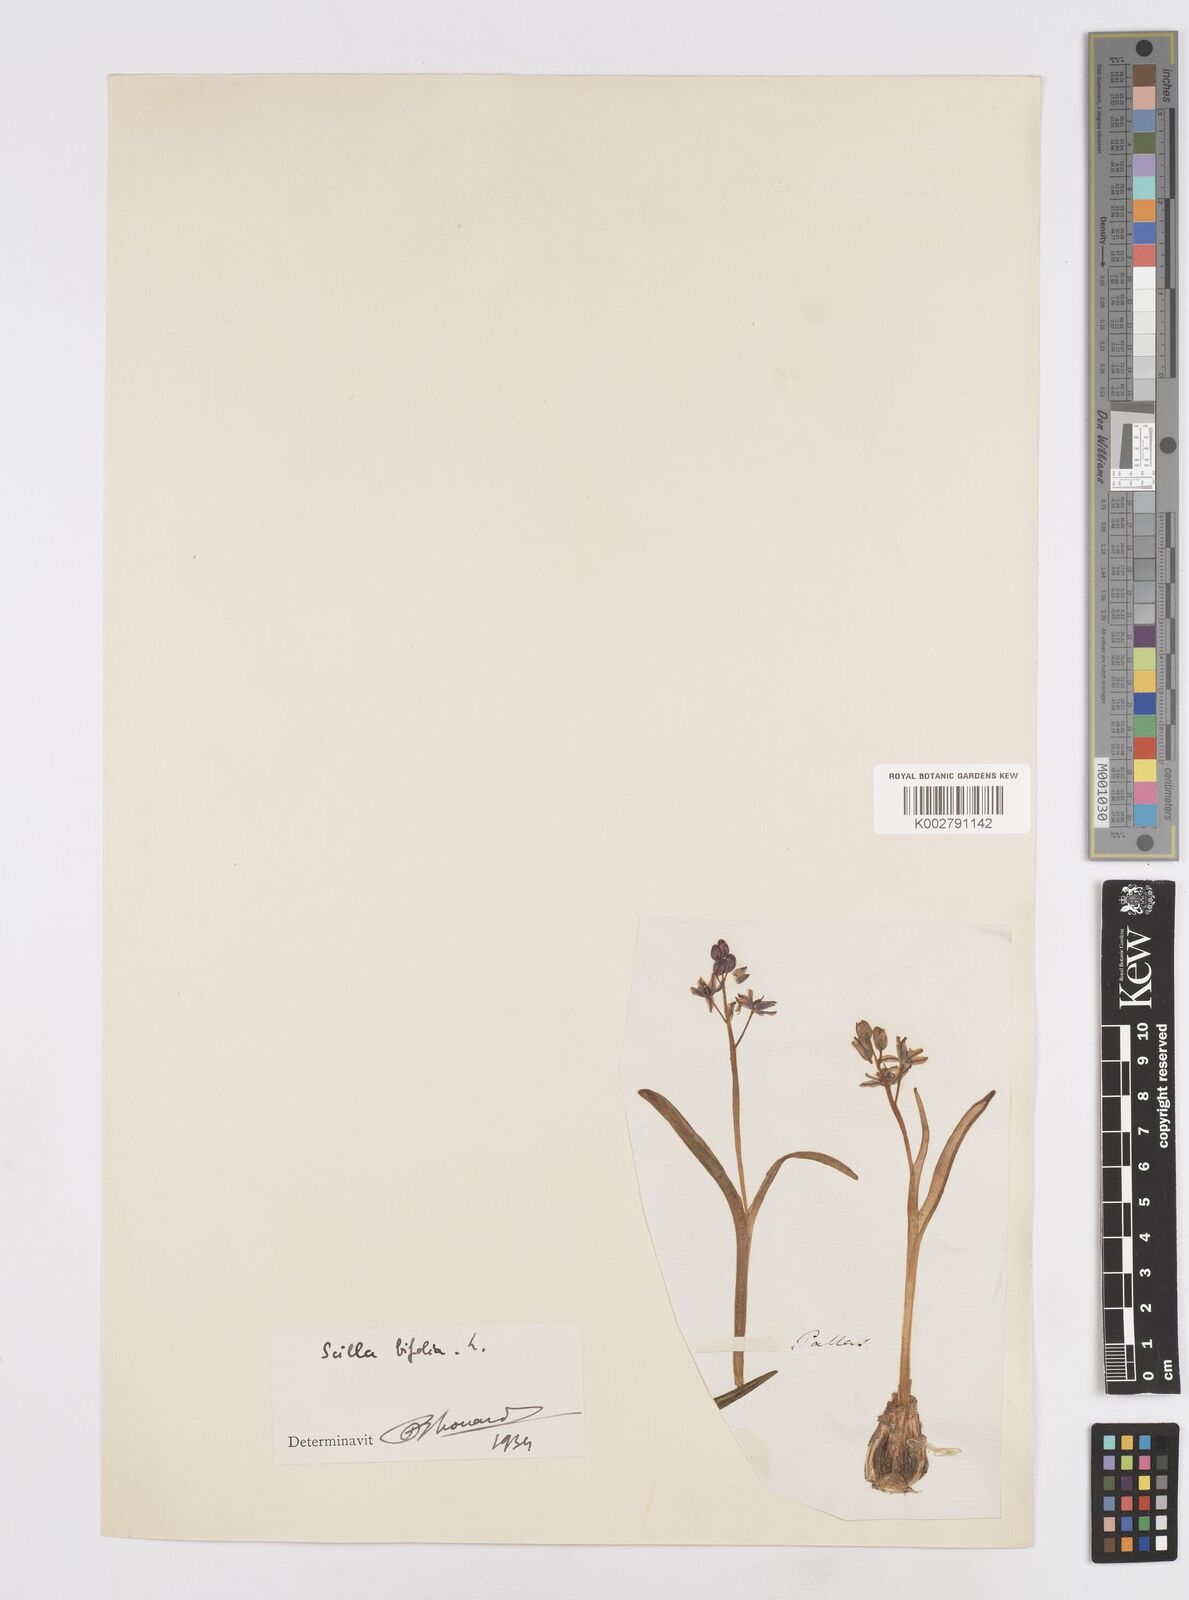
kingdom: Plantae
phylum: Tracheophyta
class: Liliopsida
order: Asparagales
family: Asparagaceae
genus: Scilla
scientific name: Scilla bifolia
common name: Alpine squill
